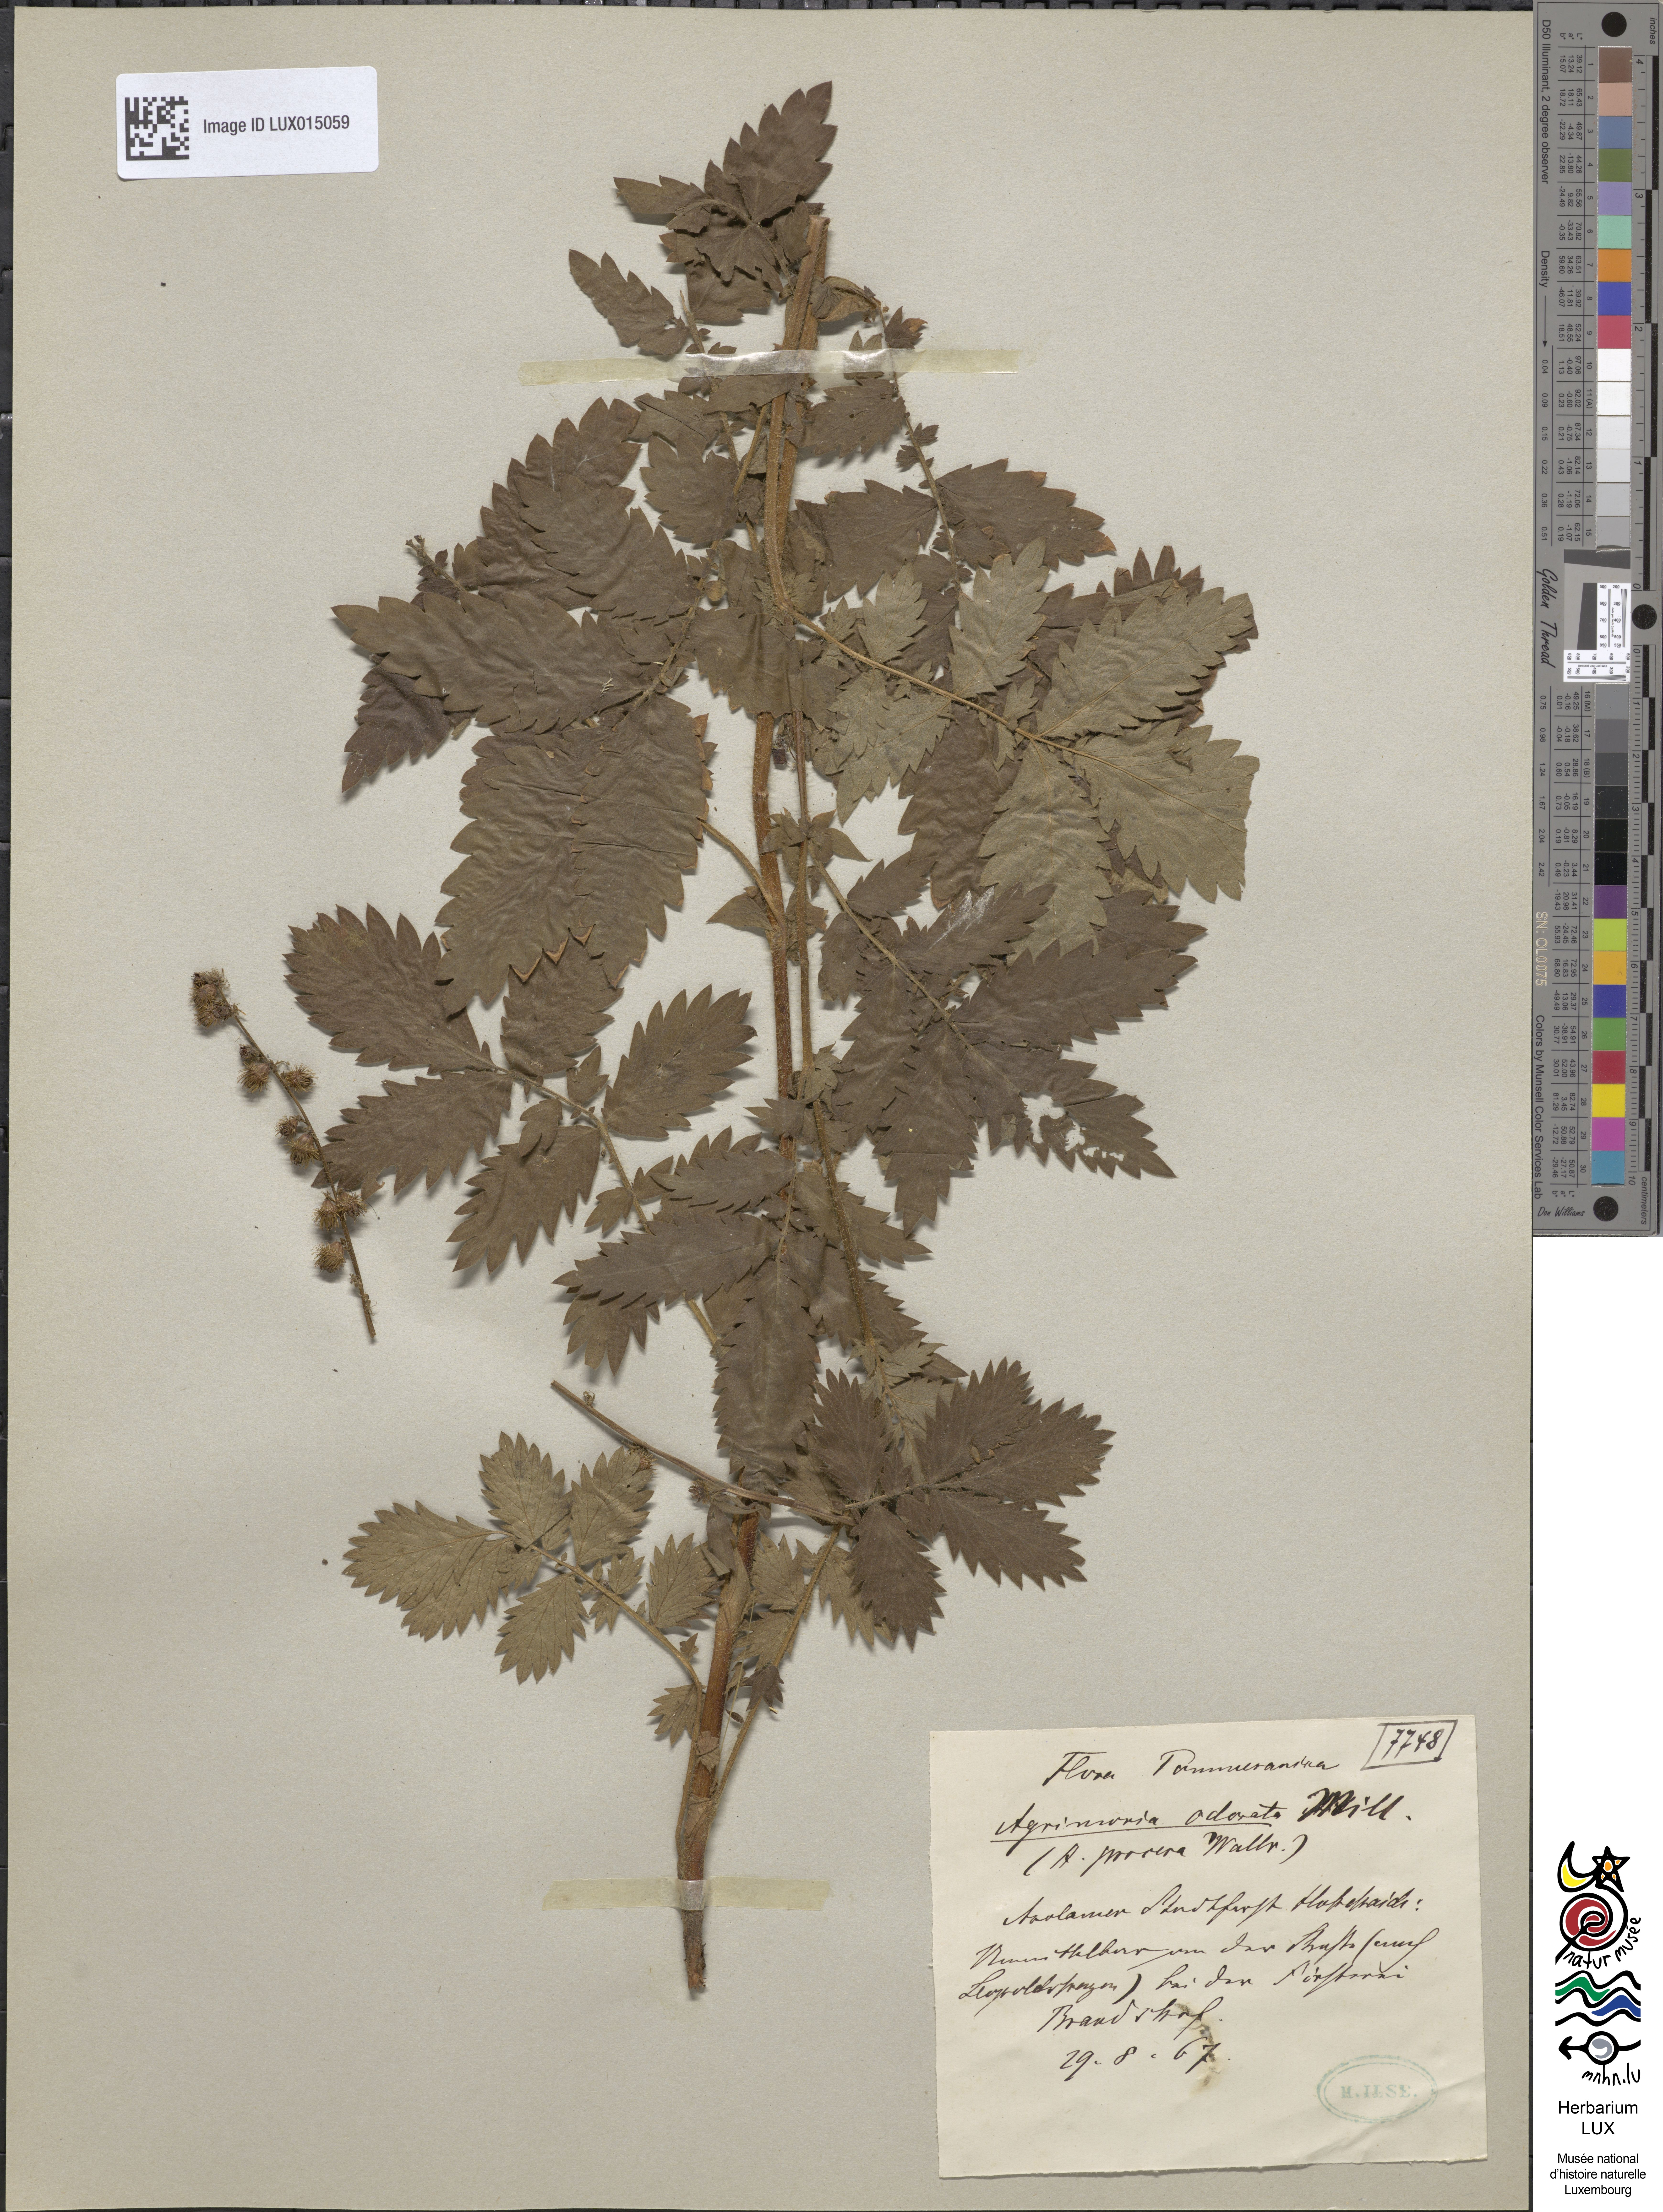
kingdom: Plantae
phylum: Tracheophyta
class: Magnoliopsida
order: Rosales
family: Rosaceae
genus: Agrimonia
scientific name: Agrimonia repens
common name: Creeping agrimony
